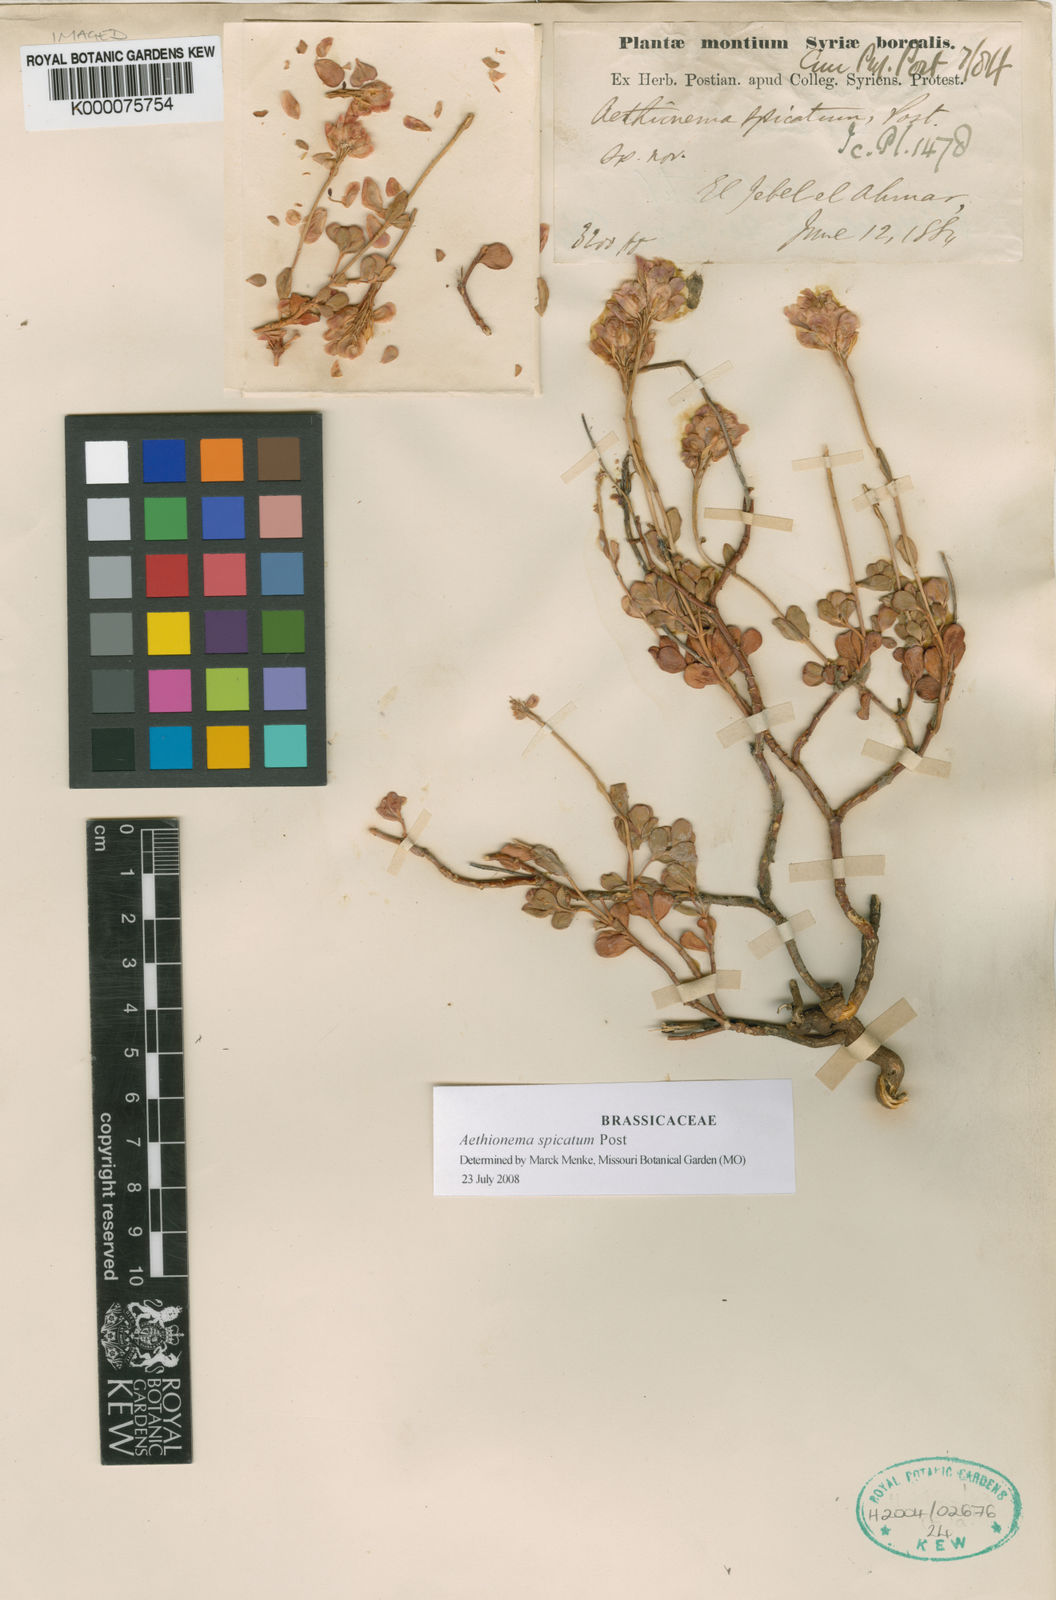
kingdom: Plantae
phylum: Tracheophyta
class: Magnoliopsida
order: Brassicales
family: Brassicaceae
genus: Aethionema
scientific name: Aethionema spicatum
